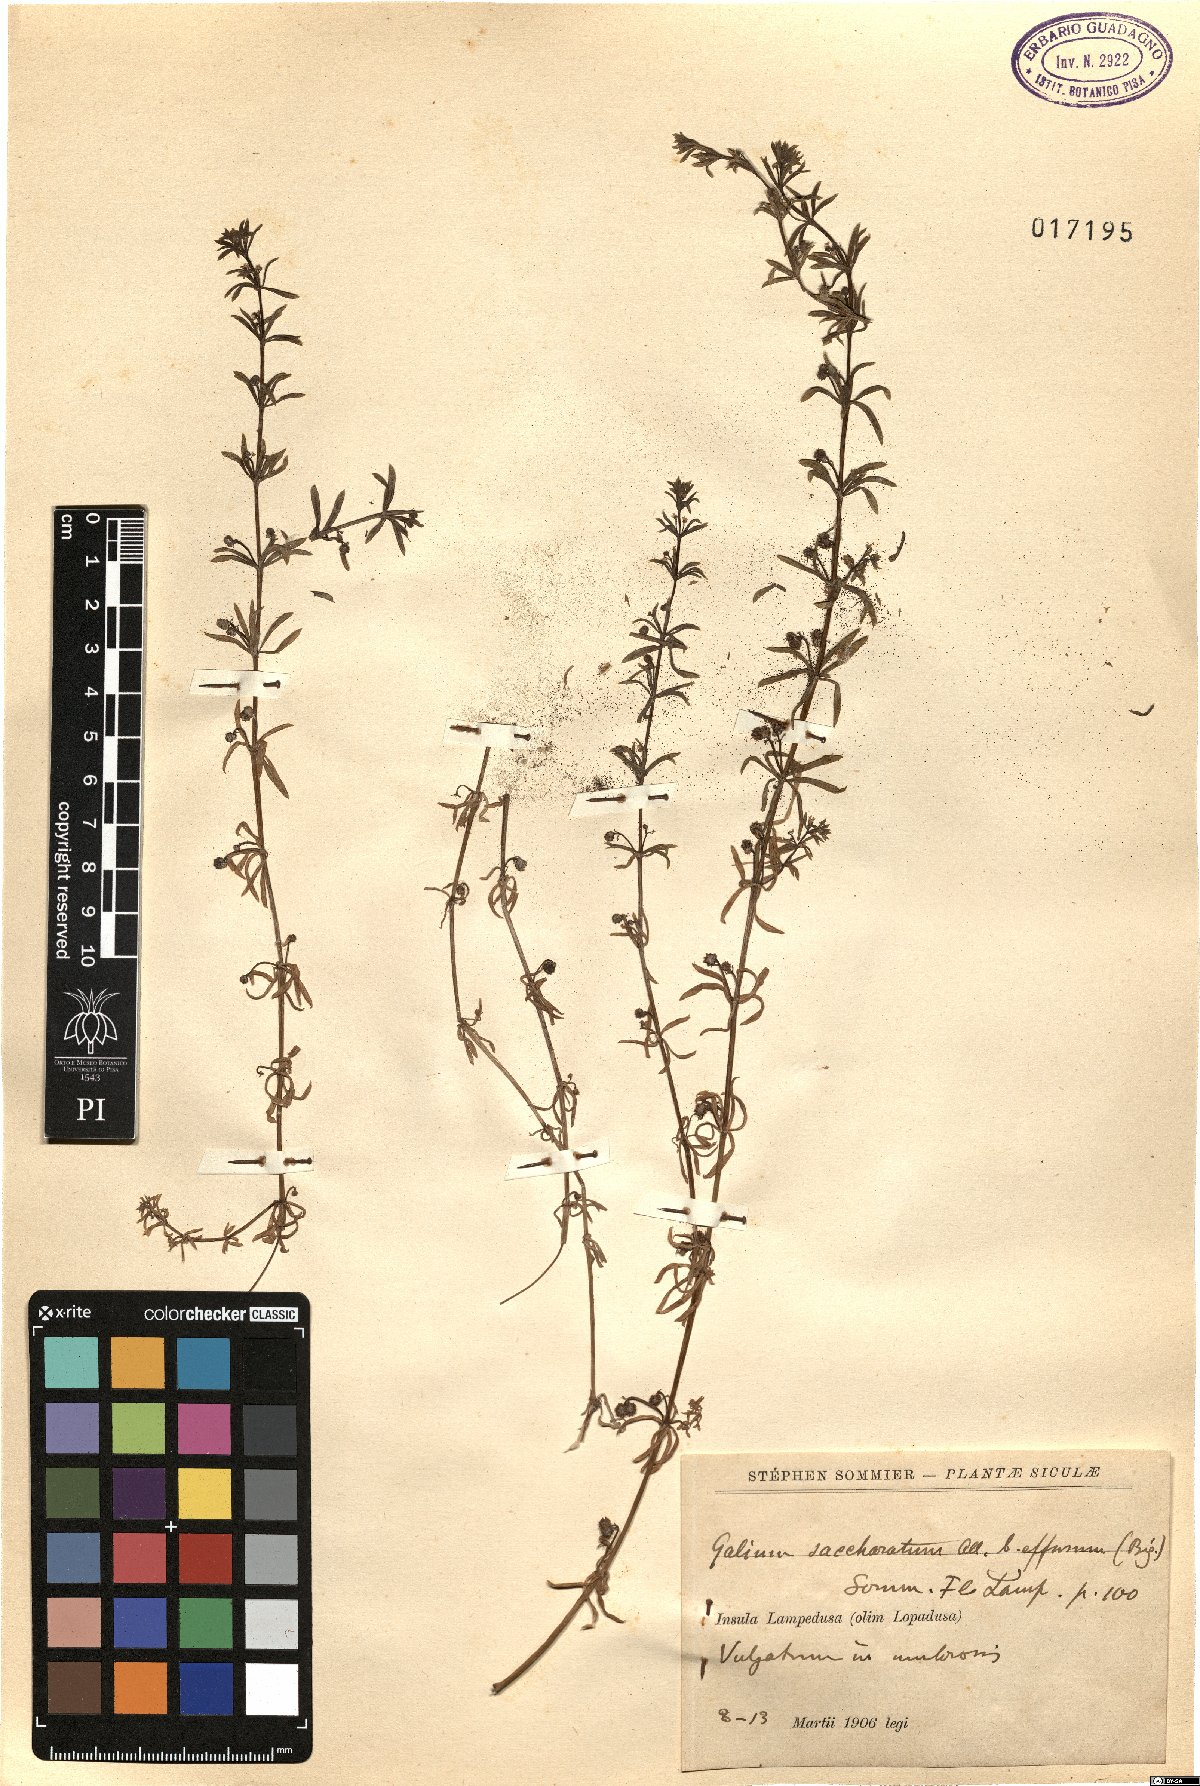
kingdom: Plantae
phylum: Tracheophyta
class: Magnoliopsida
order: Gentianales
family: Rubiaceae
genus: Galium
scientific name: Galium verrucosum
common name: Warty bedstraw
